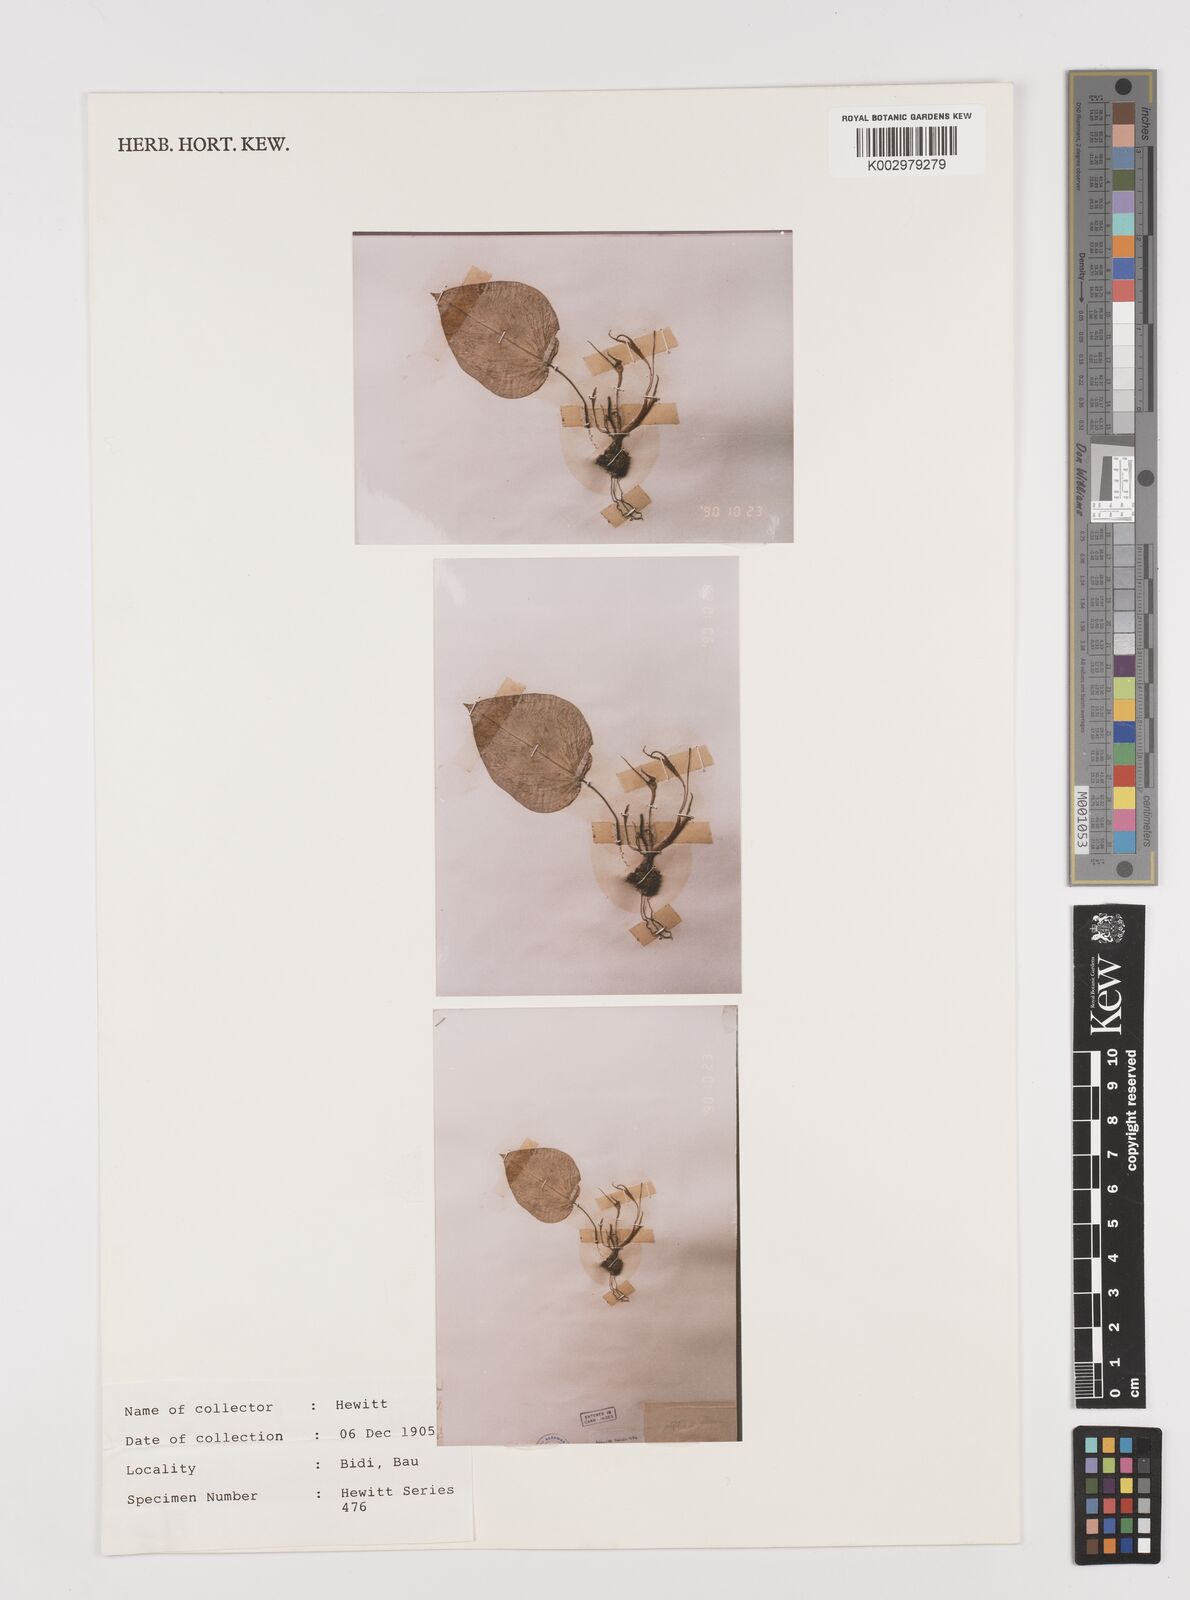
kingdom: Plantae
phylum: Tracheophyta
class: Liliopsida
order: Alismatales
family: Araceae
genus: Hapaline
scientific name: Hapaline appendiculata
